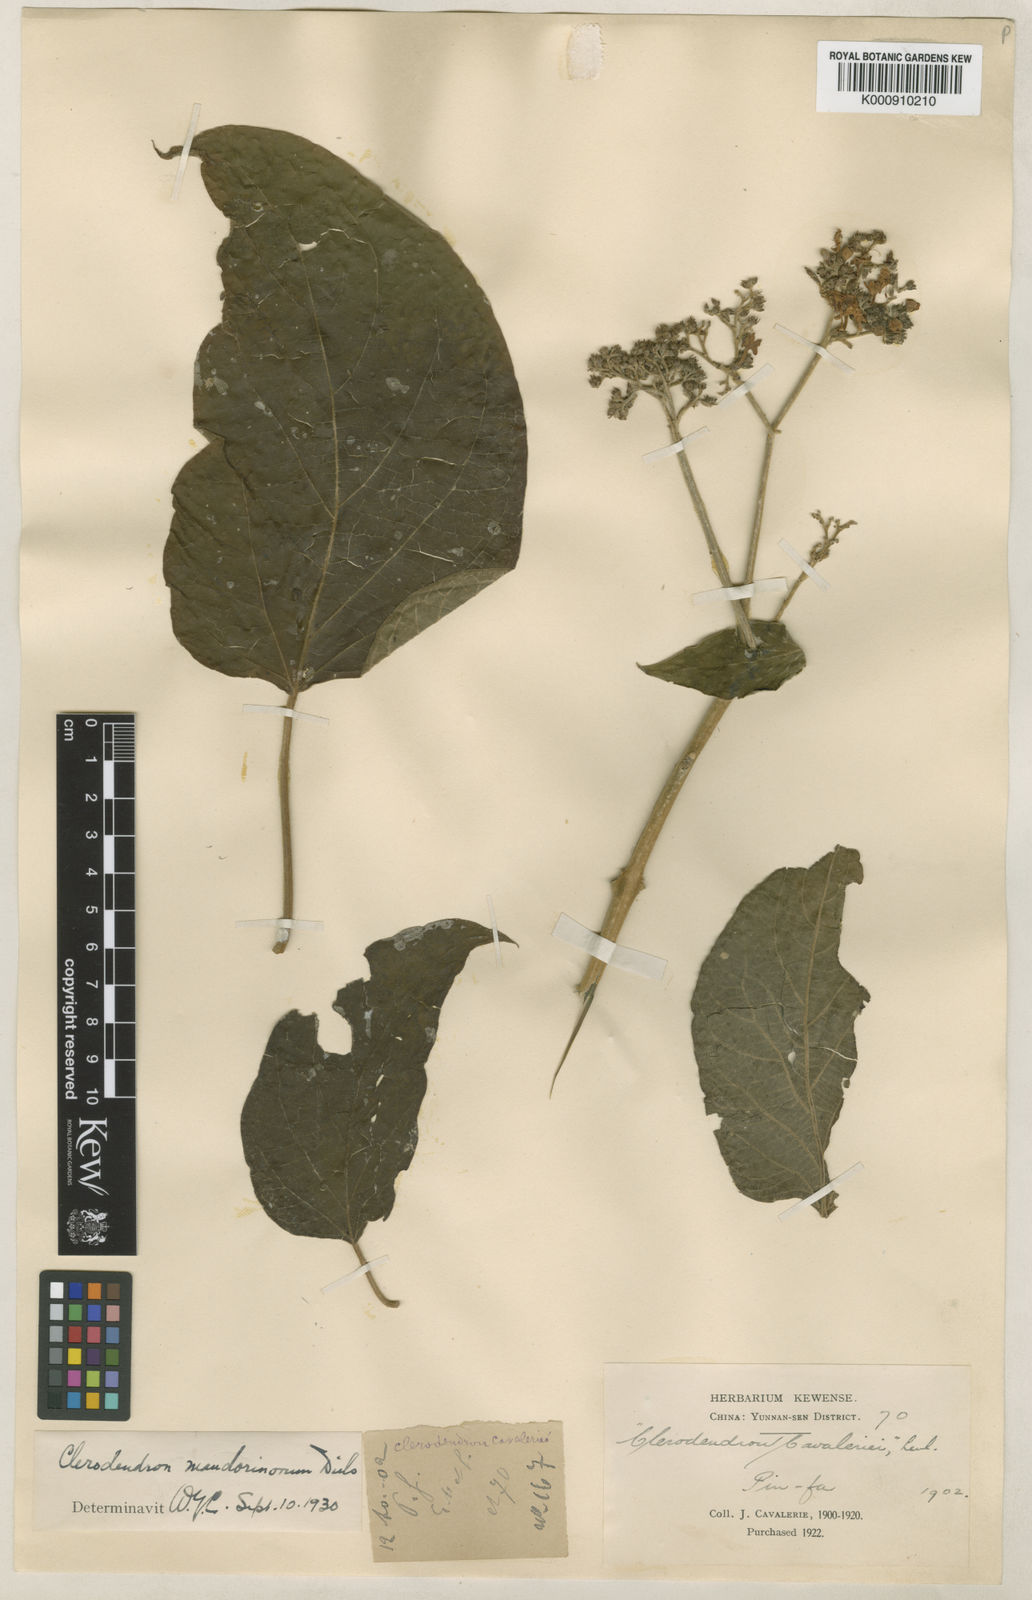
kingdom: Plantae
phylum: Tracheophyta
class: Magnoliopsida
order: Lamiales
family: Lamiaceae
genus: Clerodendrum
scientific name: Clerodendrum mandarinorum
